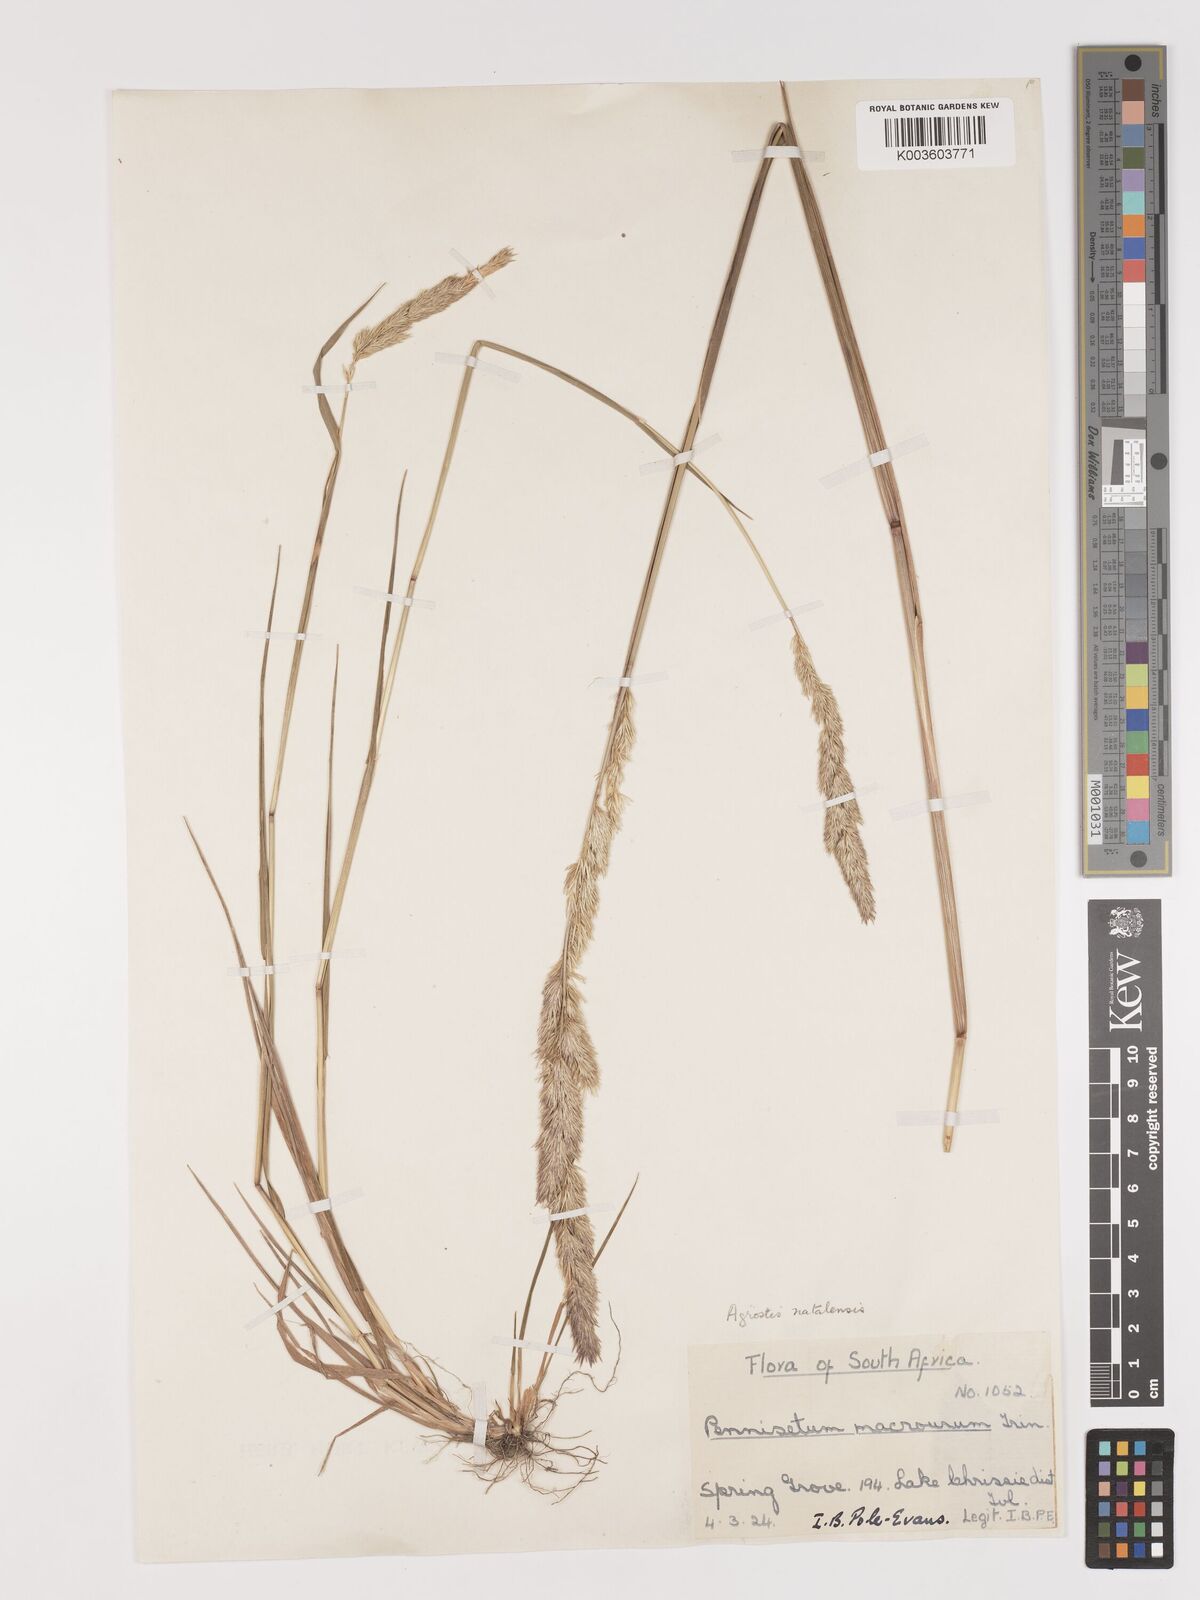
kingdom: Plantae
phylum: Tracheophyta
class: Liliopsida
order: Poales
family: Poaceae
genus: Agrostis
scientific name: Agrostis continuata
